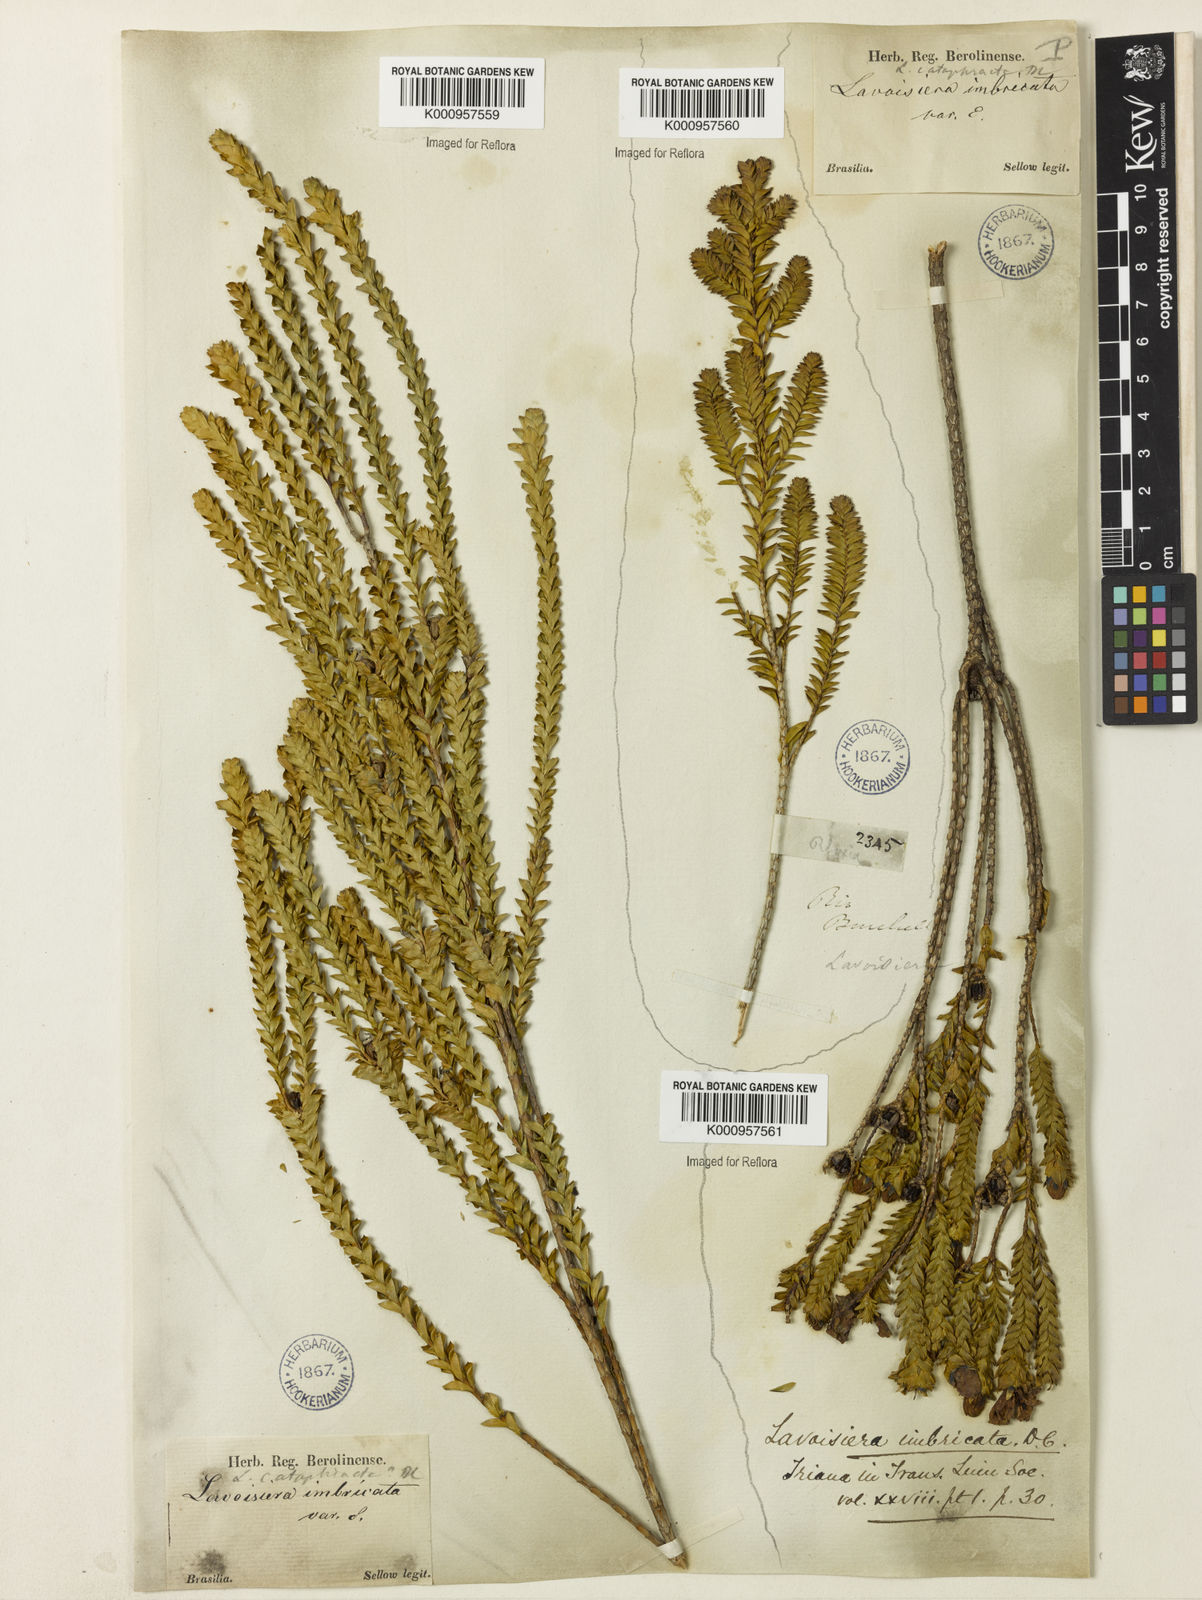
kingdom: Plantae
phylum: Tracheophyta
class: Magnoliopsida
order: Myrtales
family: Melastomataceae
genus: Microlicia
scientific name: Microlicia cataphracta
